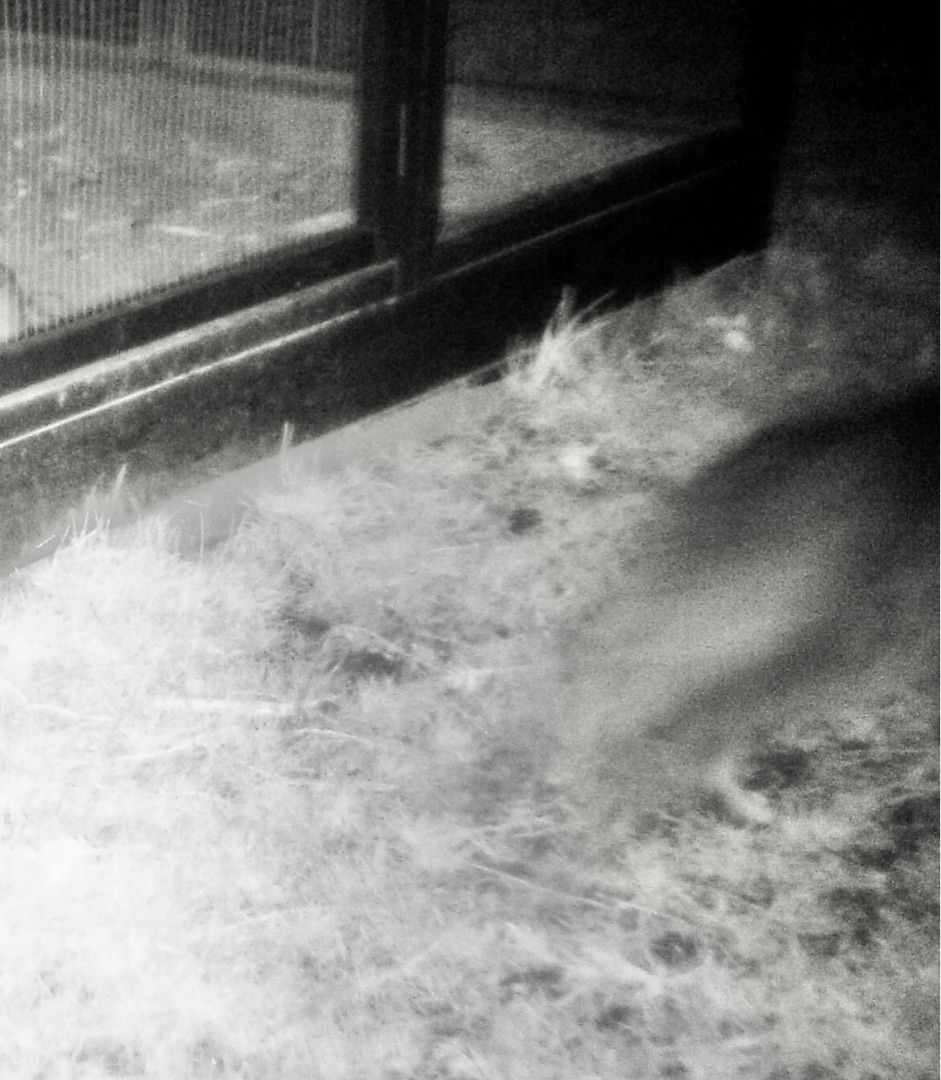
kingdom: Animalia
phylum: Chordata
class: Mammalia
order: Carnivora
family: Canidae
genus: Vulpes
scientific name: Vulpes vulpes
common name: Ræv
